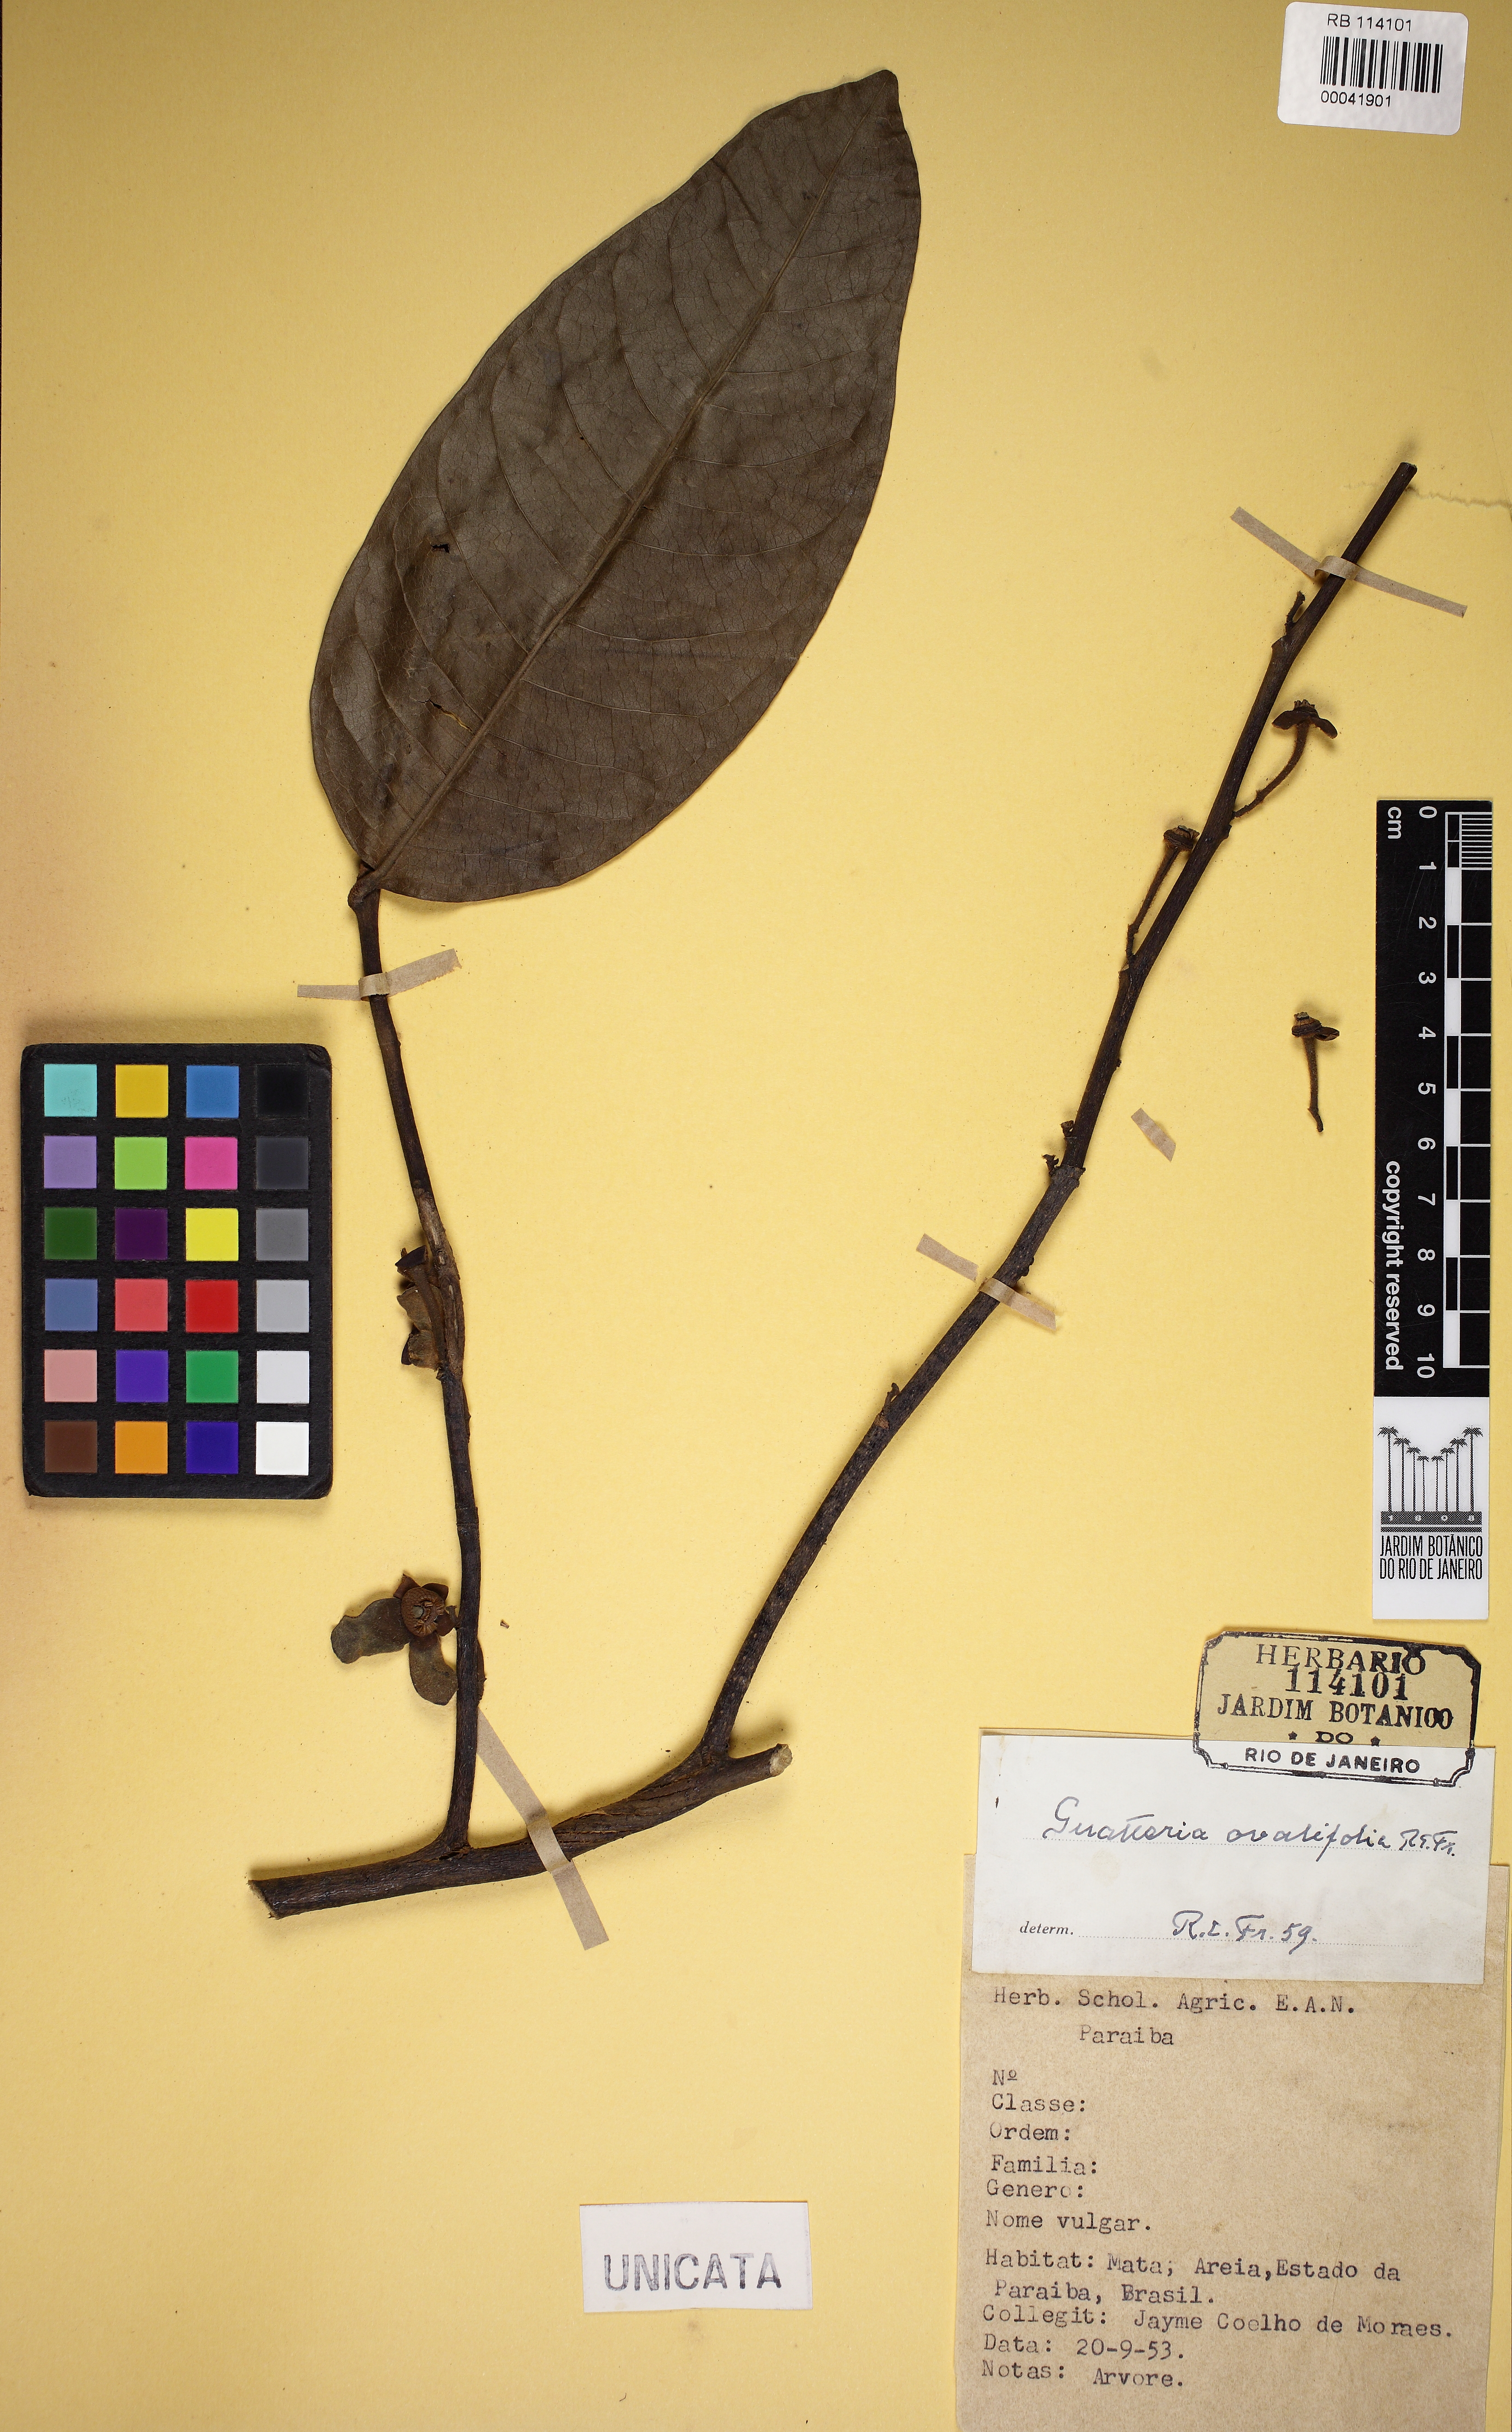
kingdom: Plantae
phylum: Tracheophyta
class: Magnoliopsida
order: Magnoliales
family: Annonaceae
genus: Guatteria
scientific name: Guatteria ovalifolia
